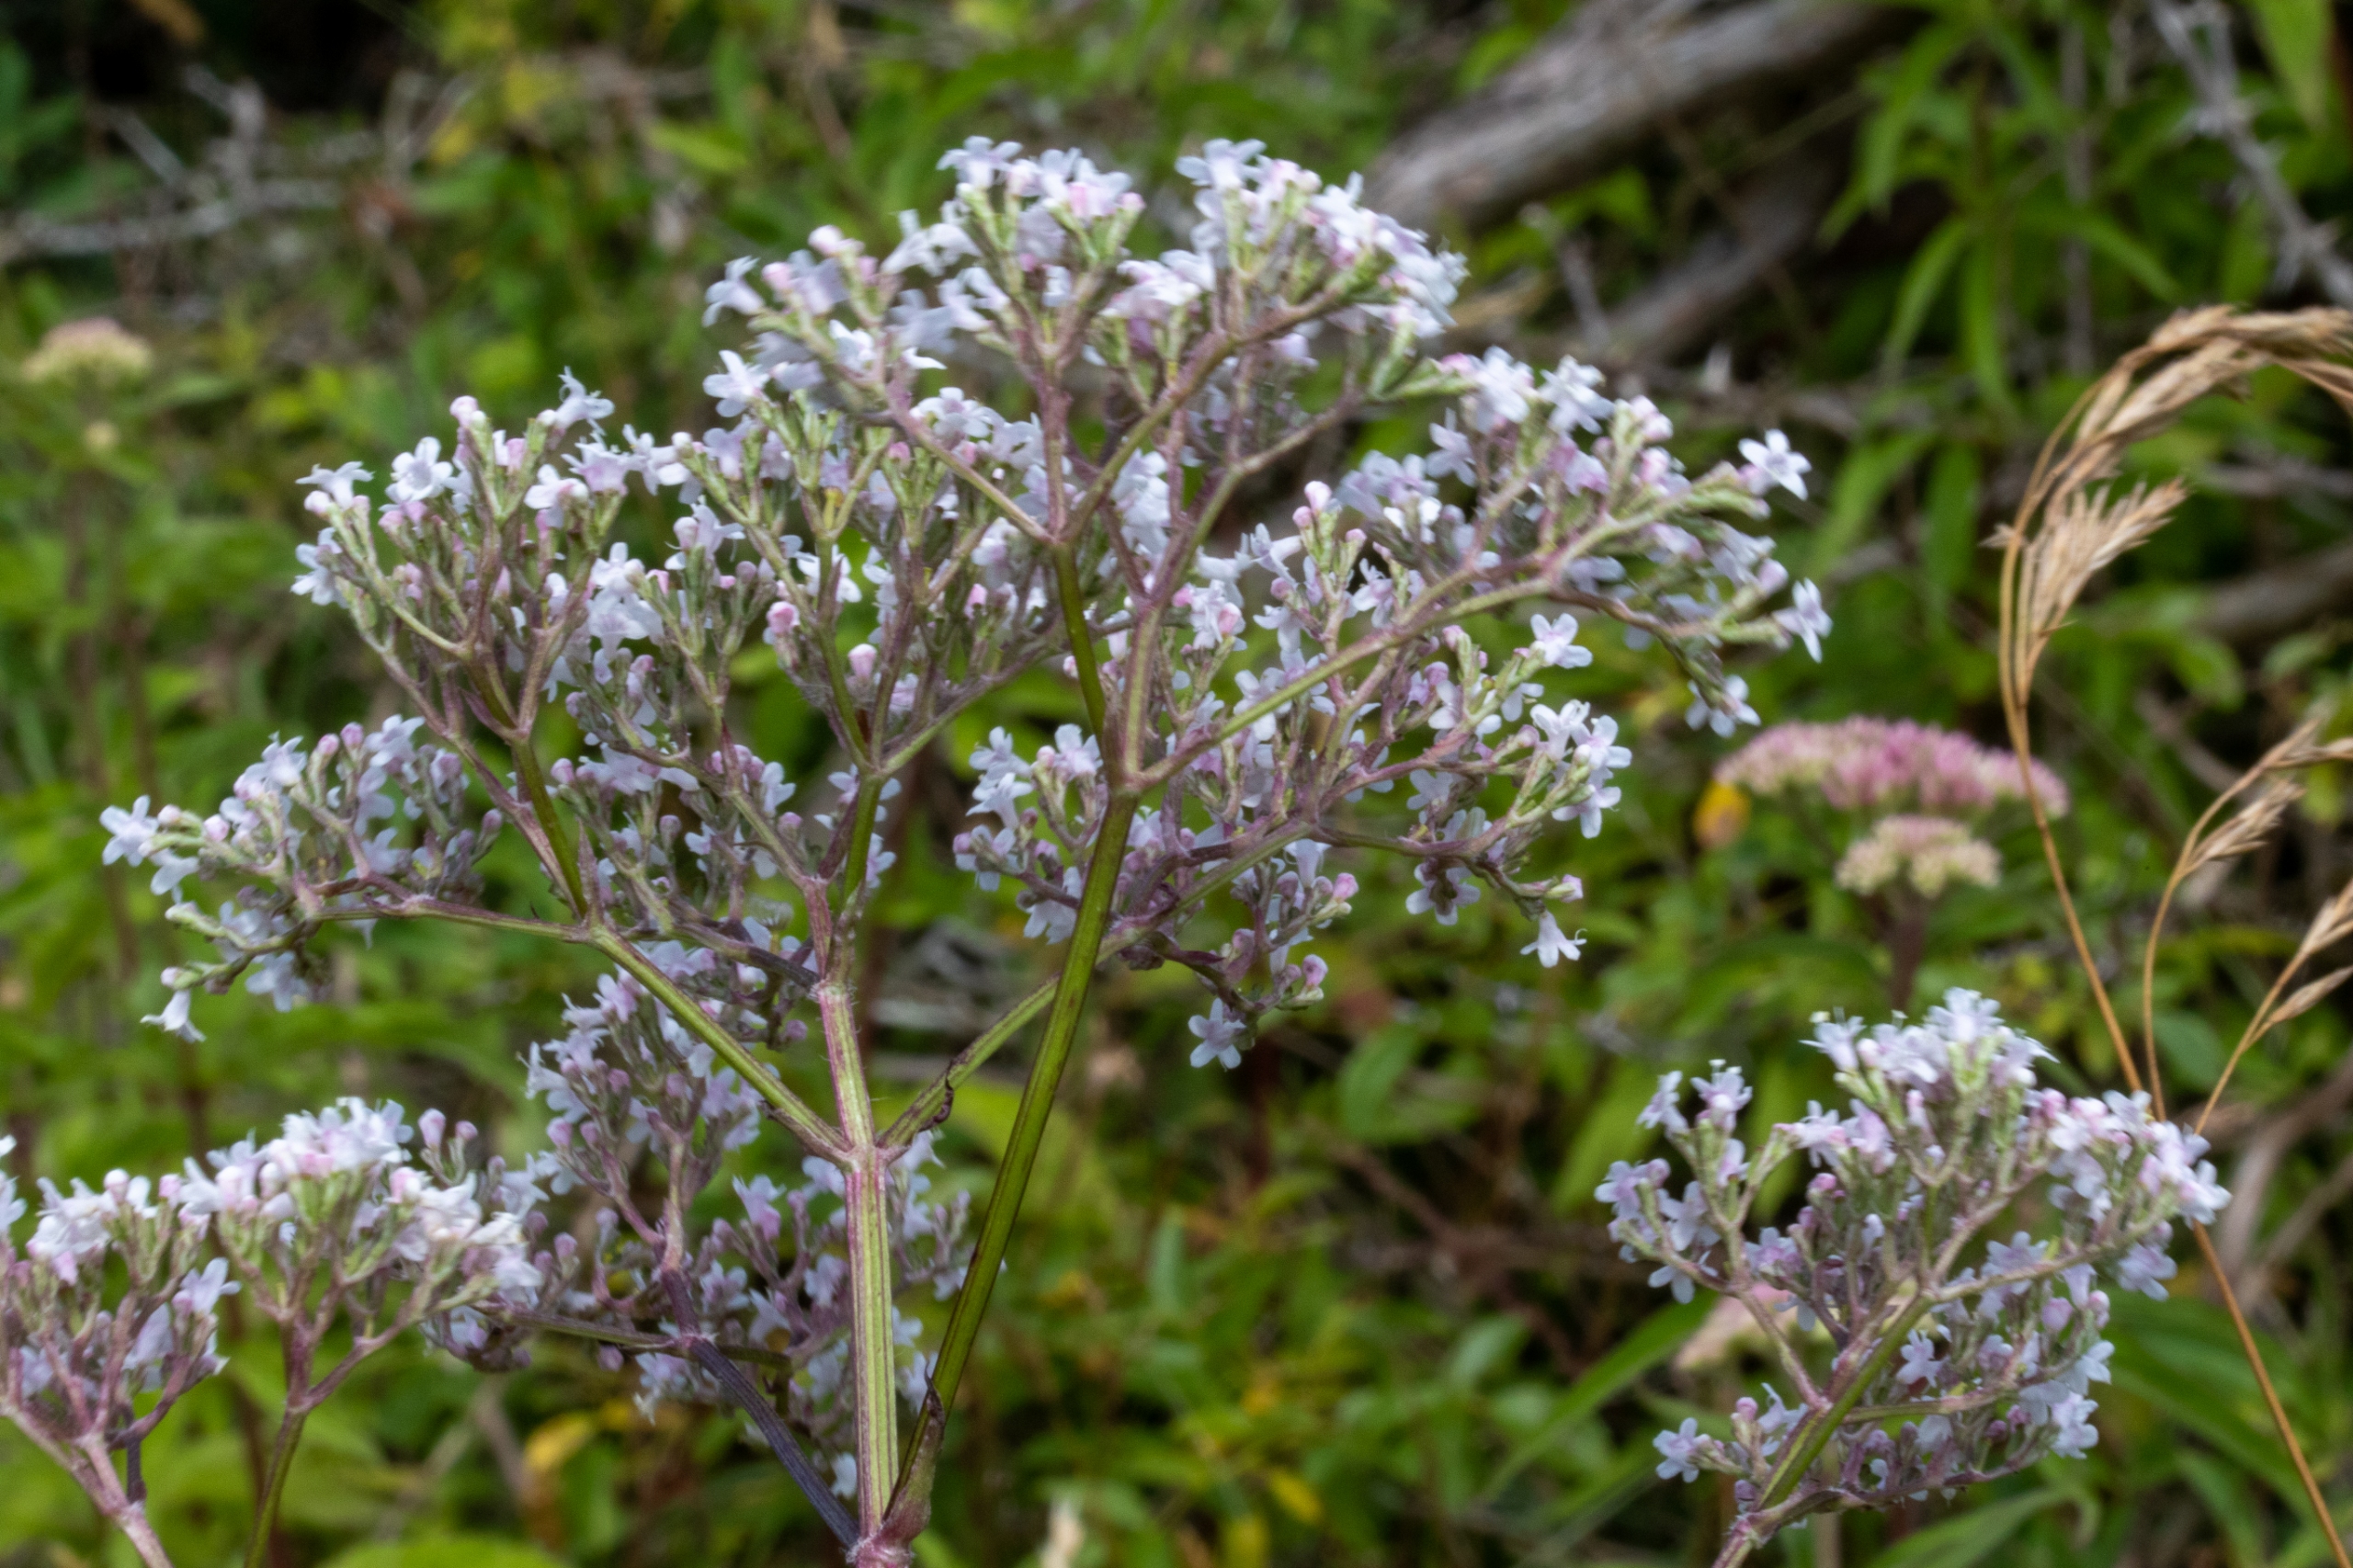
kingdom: Plantae
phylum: Tracheophyta
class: Magnoliopsida
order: Dipsacales
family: Caprifoliaceae
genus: Valeriana
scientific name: Valeriana officinalis
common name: Læge-baldrian
